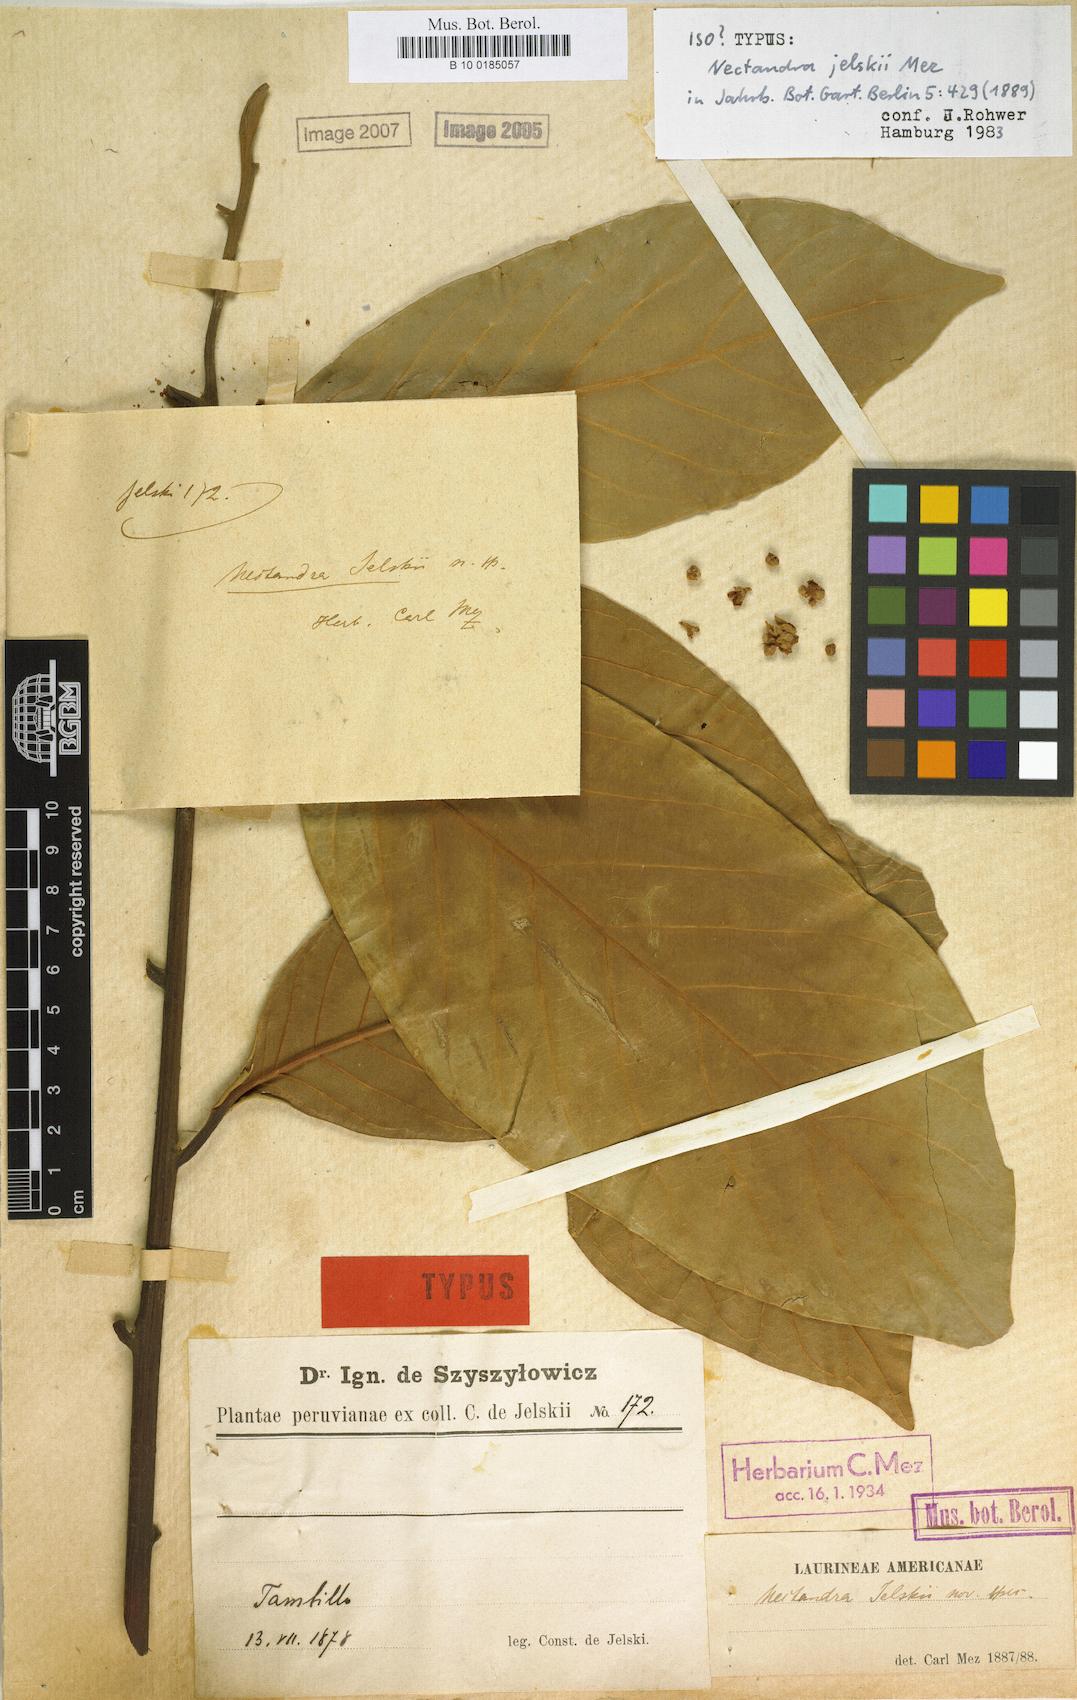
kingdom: Plantae
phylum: Tracheophyta
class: Magnoliopsida
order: Laurales
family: Lauraceae
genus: Nectandra
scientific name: Nectandra lineatifolia
